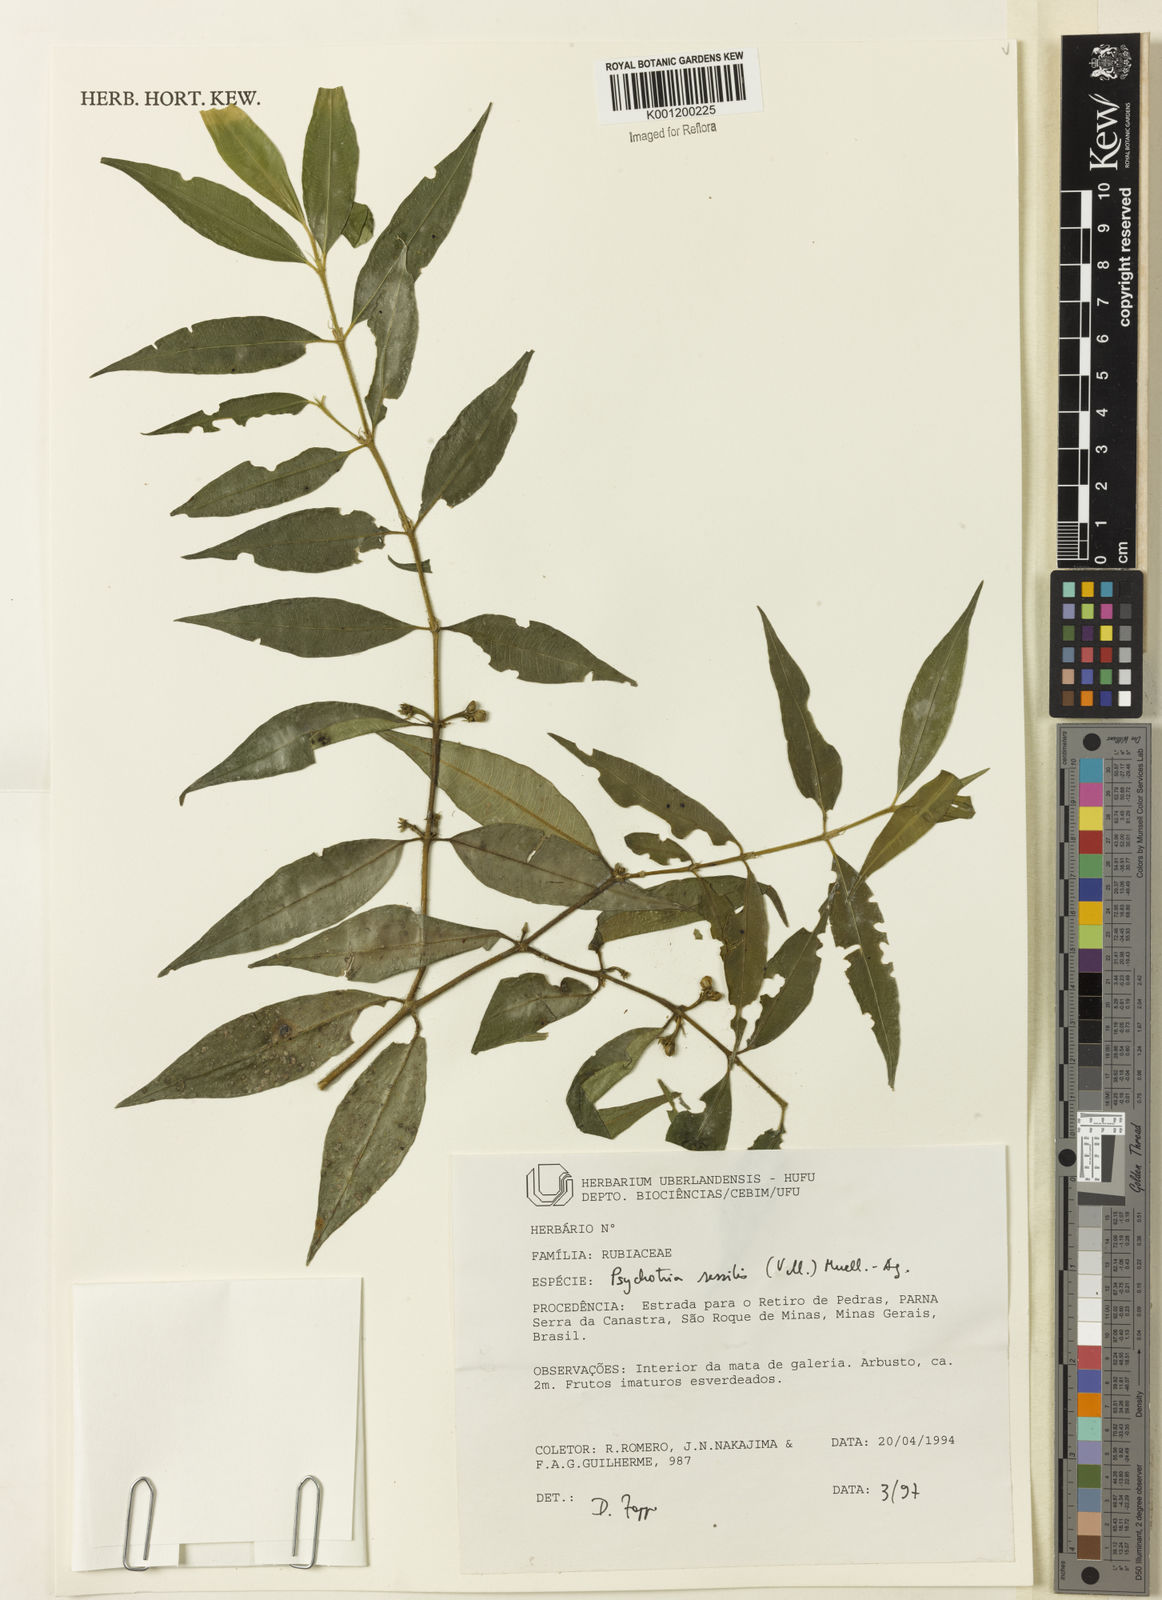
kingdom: Plantae
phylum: Tracheophyta
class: Magnoliopsida
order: Gentianales
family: Rubiaceae
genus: Rudgea
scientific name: Rudgea sessilis
